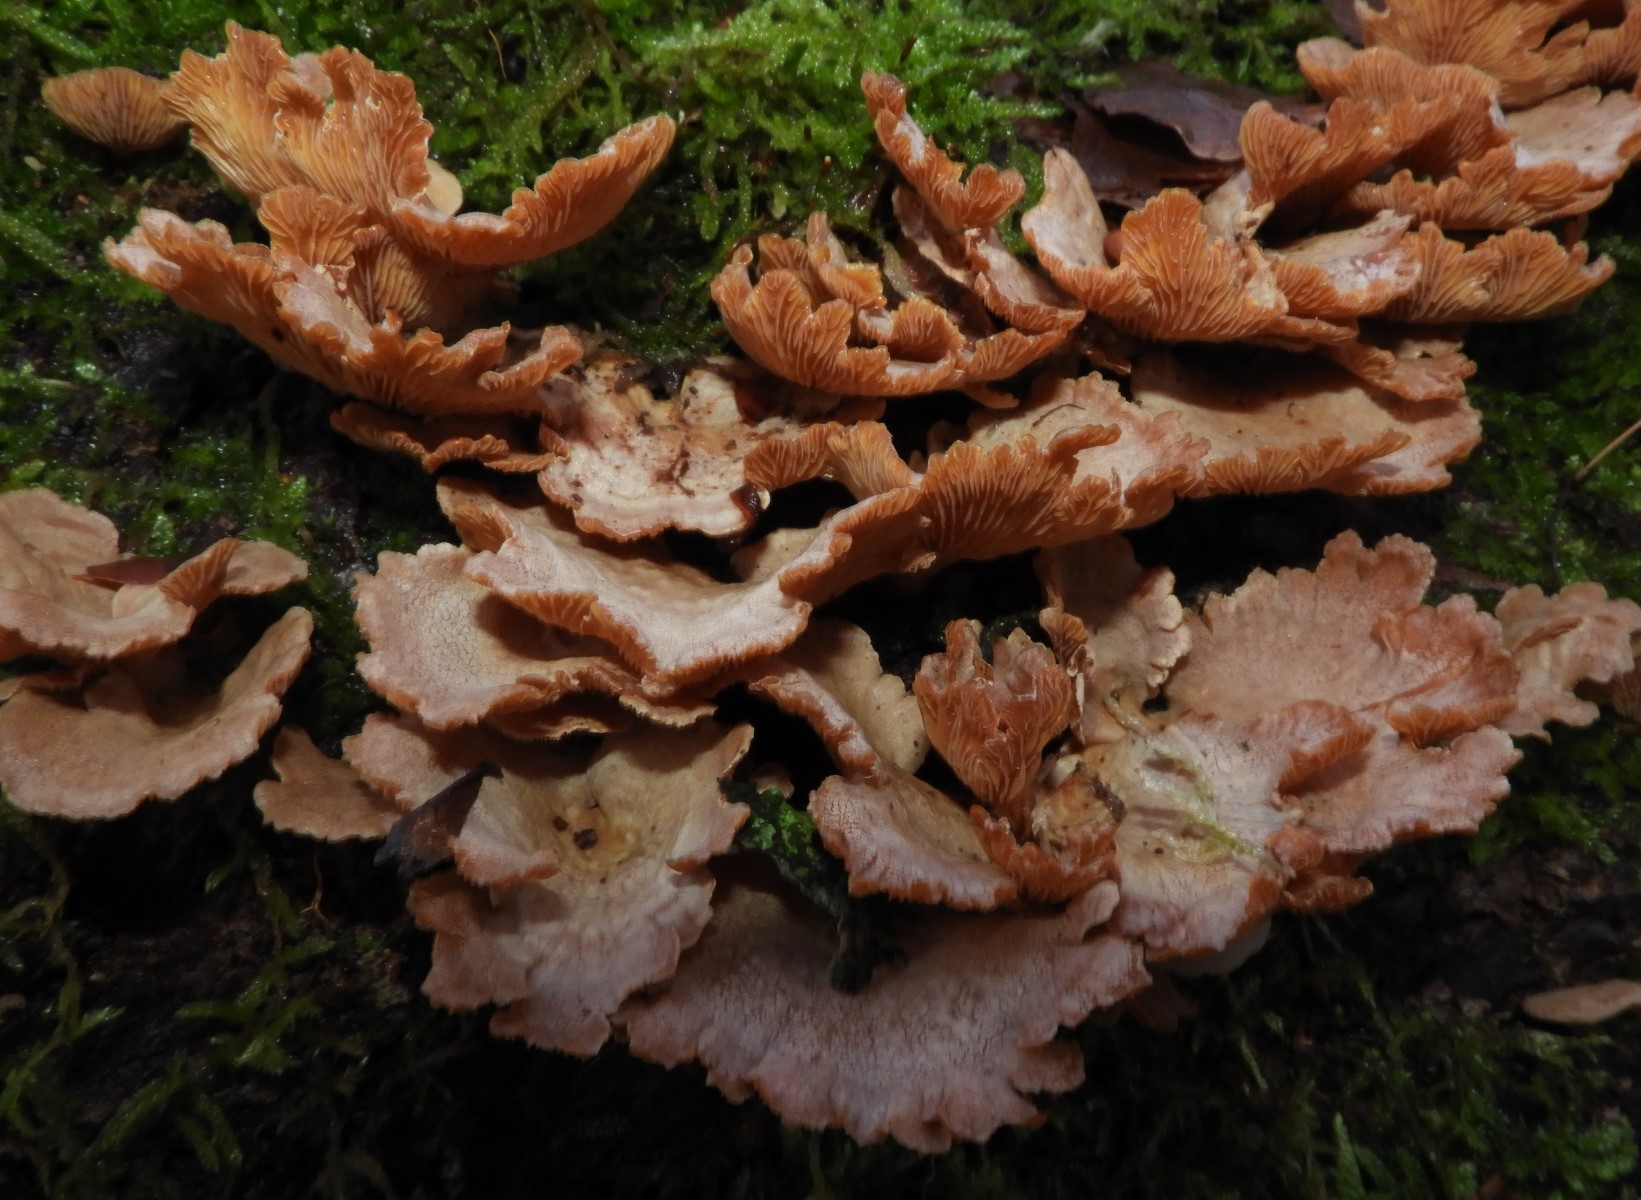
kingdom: Fungi
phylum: Basidiomycota
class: Agaricomycetes
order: Agaricales
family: Mycenaceae
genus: Panellus
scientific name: Panellus stipticus
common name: kliddet epaulethat
